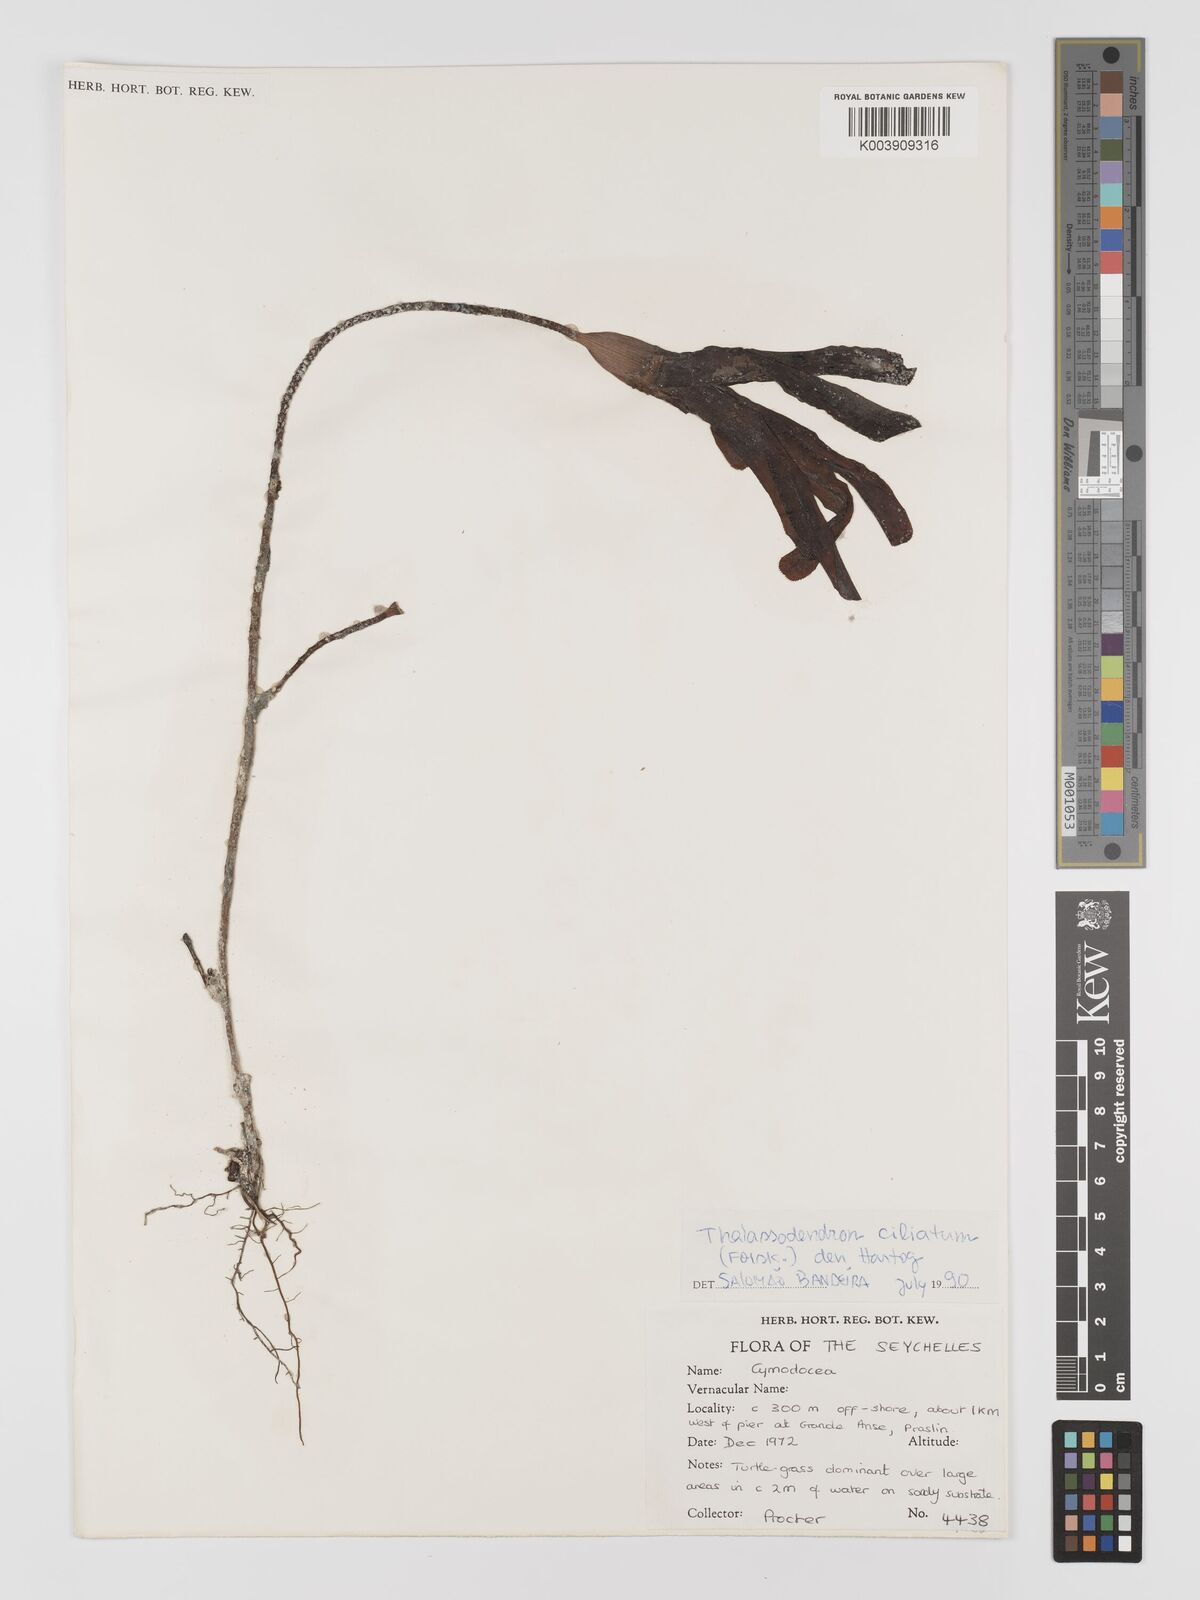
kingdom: Plantae
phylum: Tracheophyta
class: Liliopsida
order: Alismatales
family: Cymodoceaceae
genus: Thalassodendron
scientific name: Thalassodendron ciliatum
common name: Species code: tc
